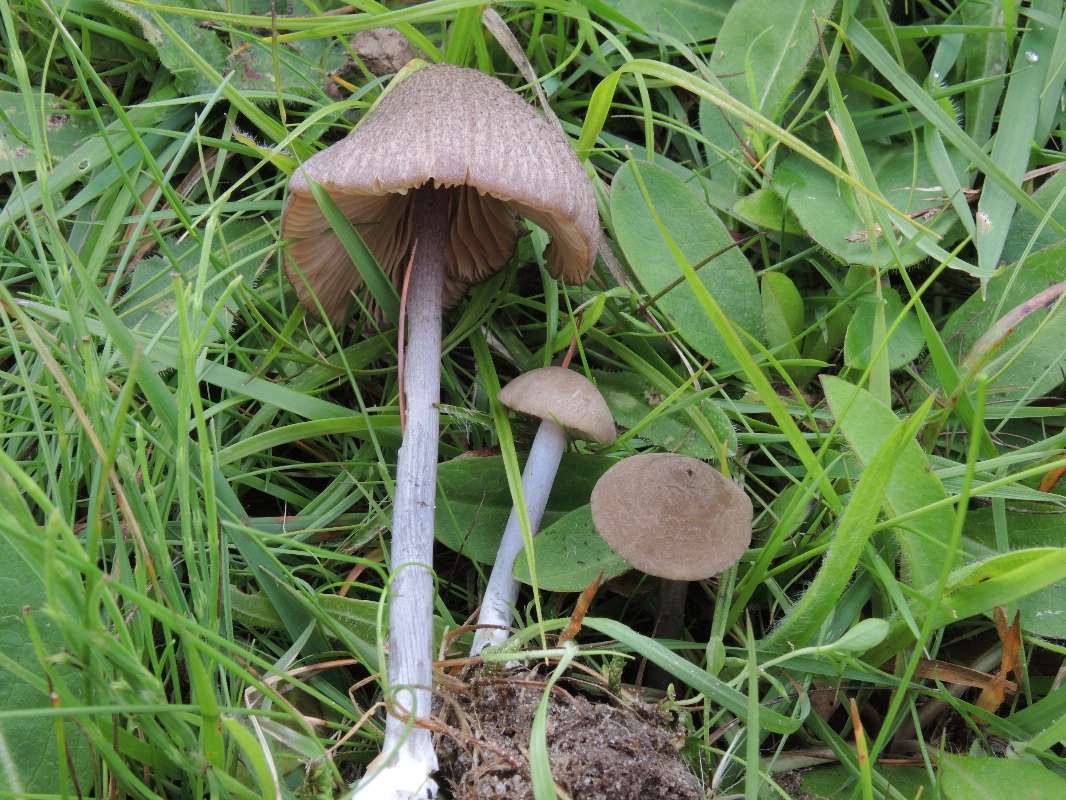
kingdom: Fungi
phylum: Basidiomycota
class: Agaricomycetes
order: Agaricales
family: Entolomataceae
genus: Entoloma
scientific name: Entoloma griseocyaneum
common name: gråblå rødblad
